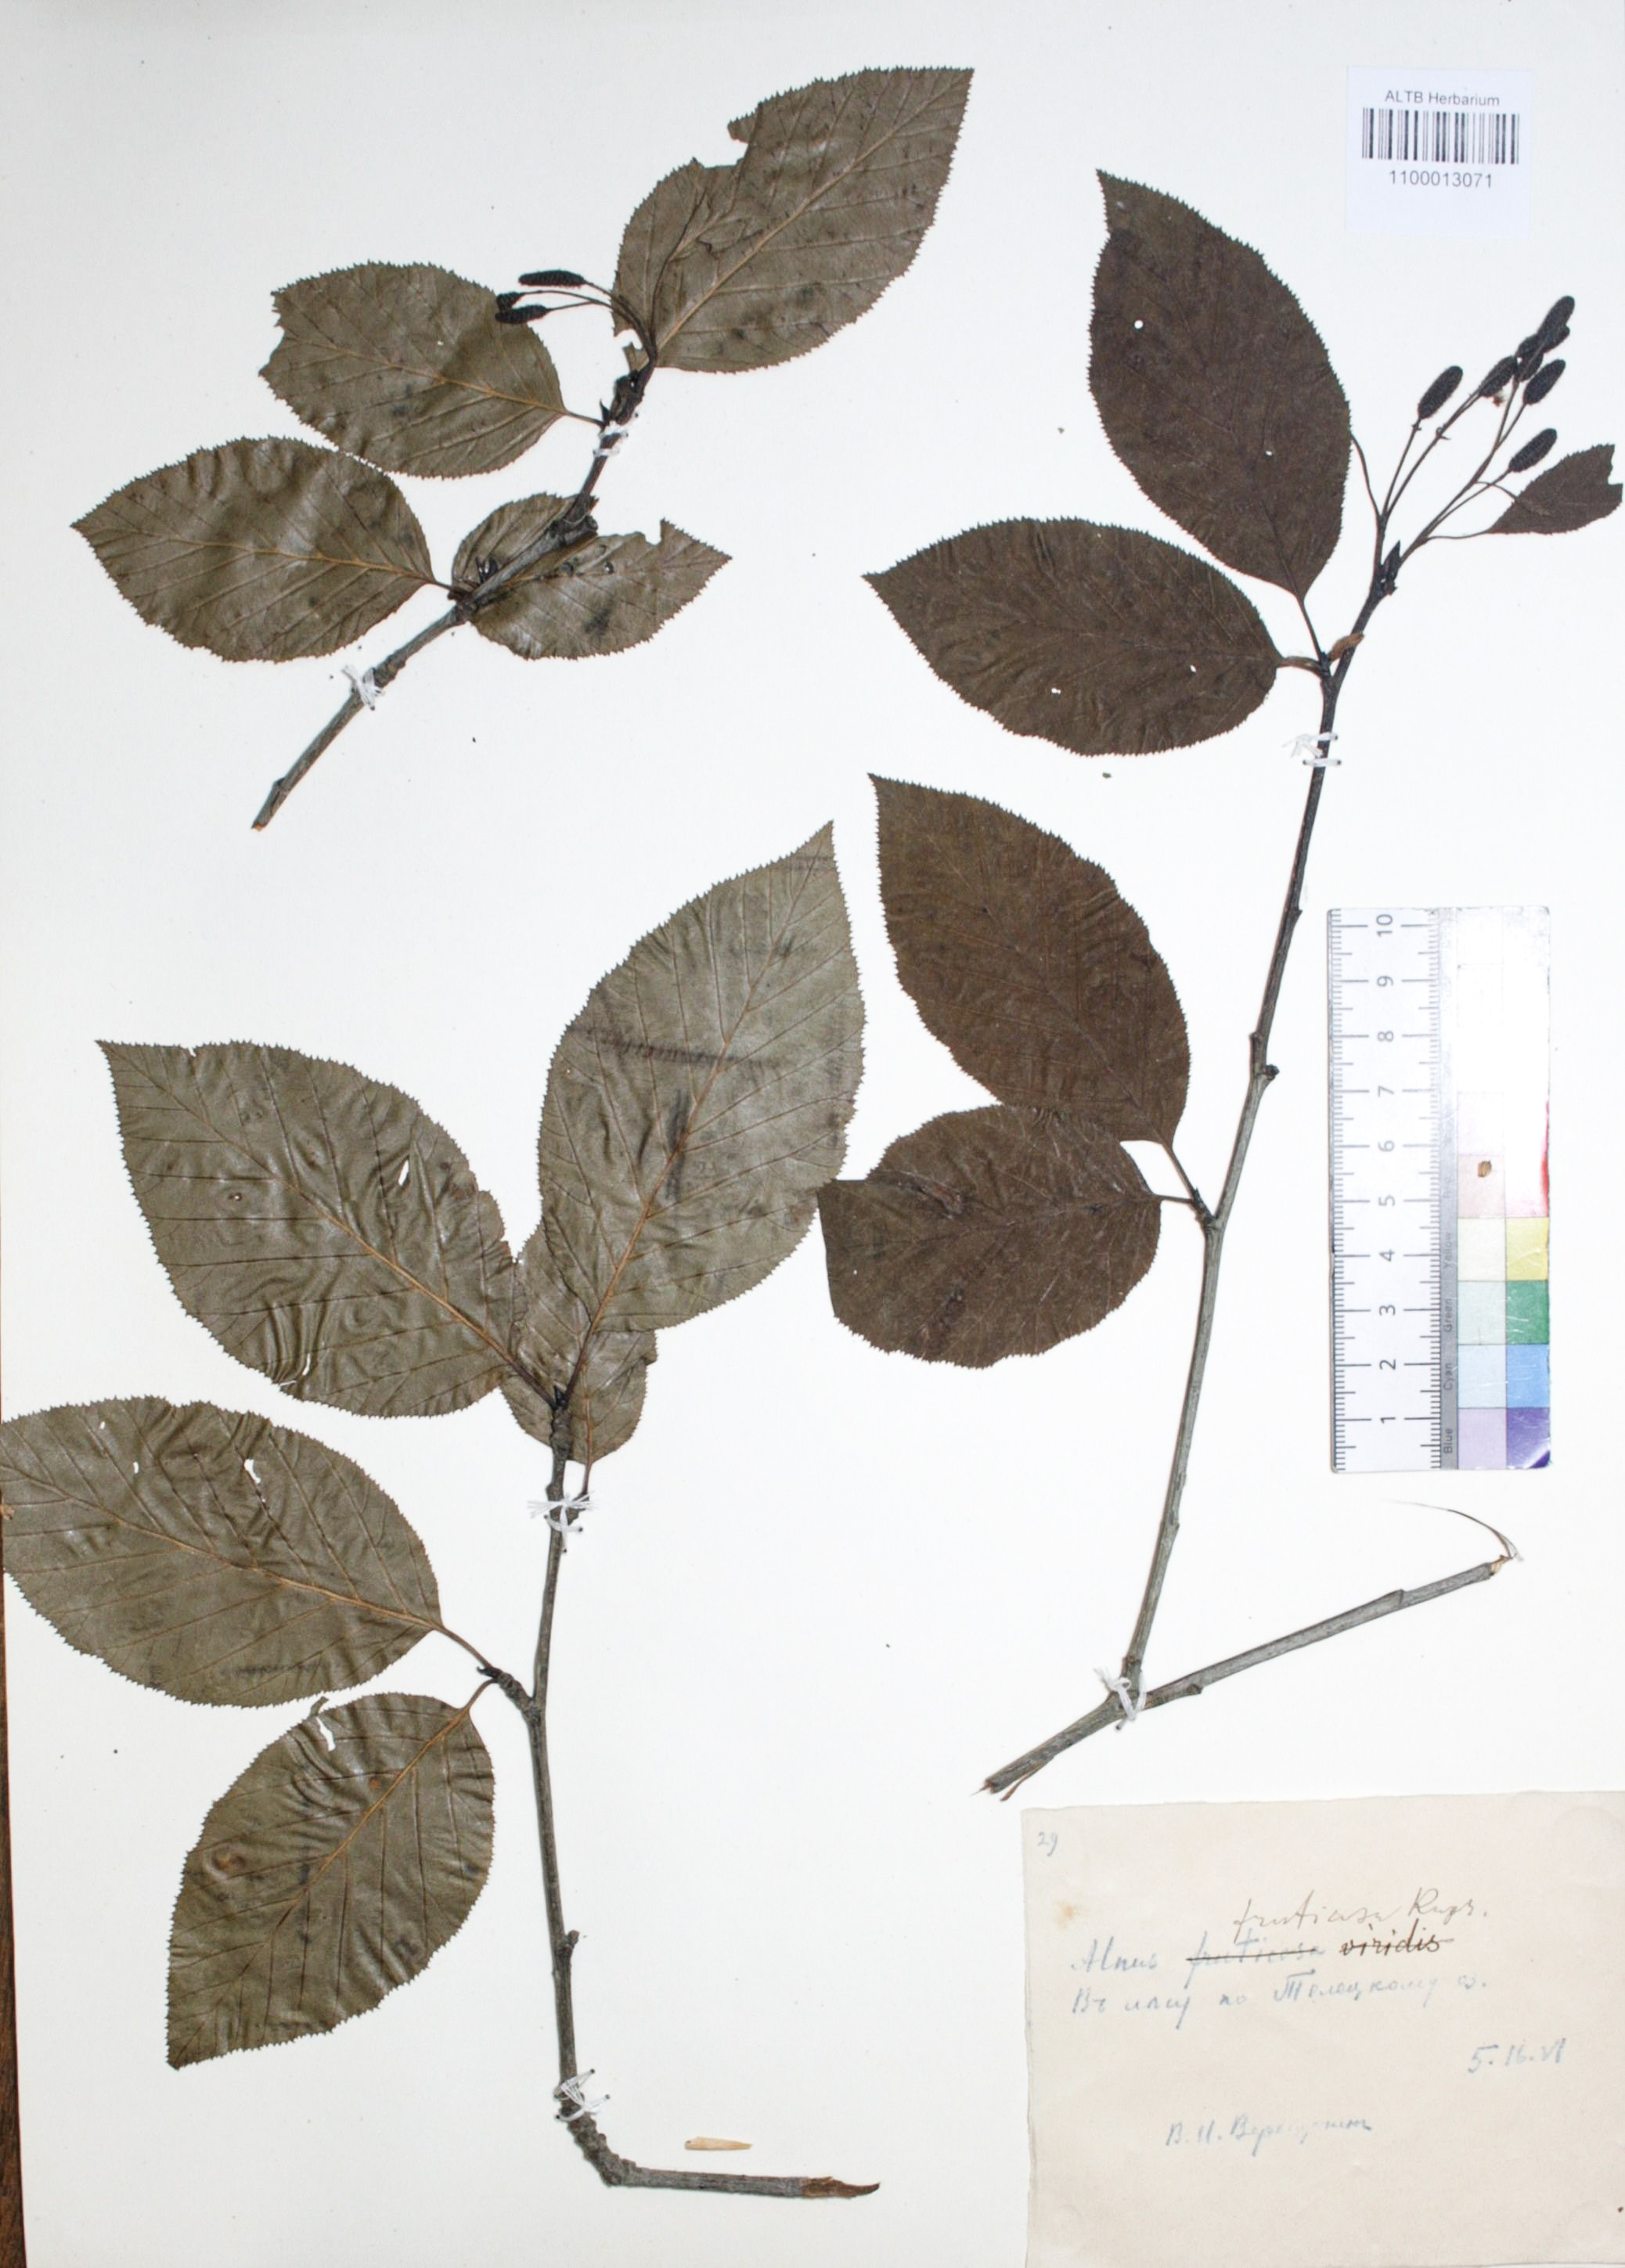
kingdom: Plantae
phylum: Tracheophyta
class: Magnoliopsida
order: Fagales
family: Betulaceae
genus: Alnus
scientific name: Alnus alnobetula
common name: Green alder
